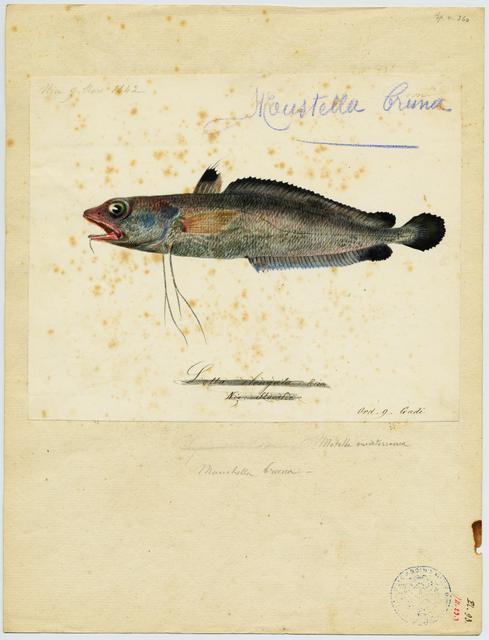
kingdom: Animalia
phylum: Chordata
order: Gadiformes
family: Phycidae
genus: Phycis
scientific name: Phycis blennoides
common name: Forked hake
